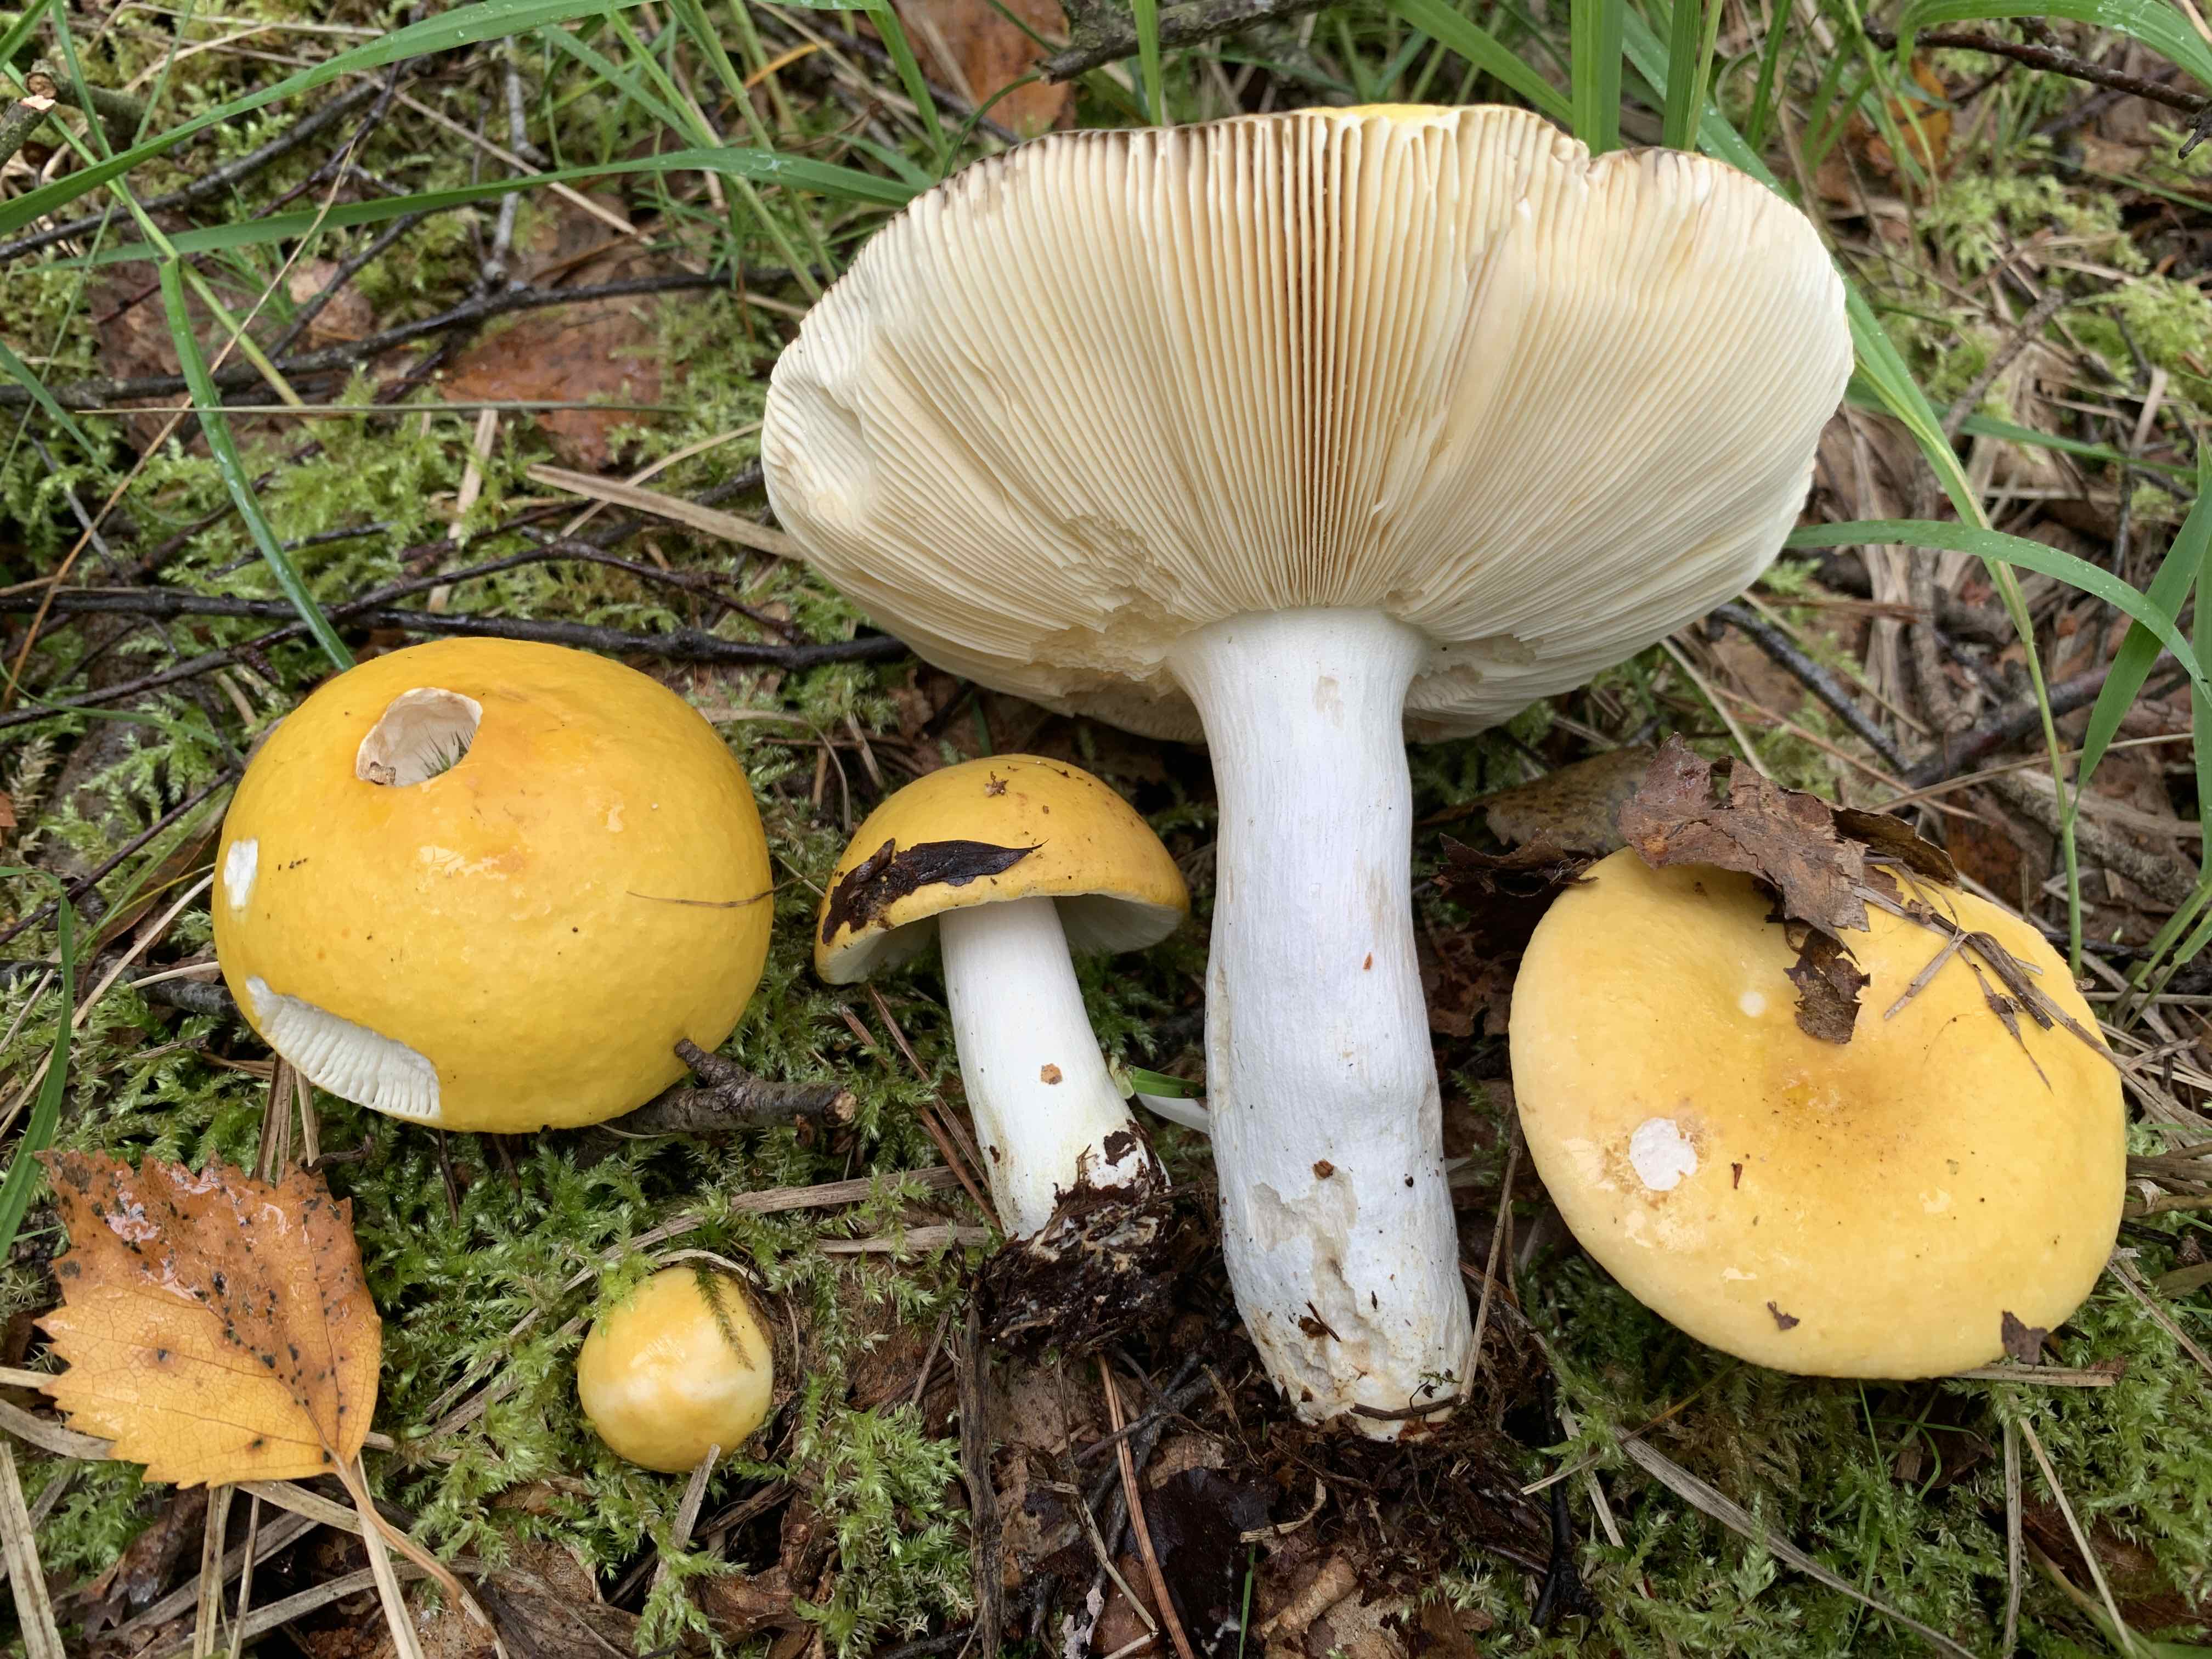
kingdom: Fungi
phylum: Basidiomycota
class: Agaricomycetes
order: Russulales
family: Russulaceae
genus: Russula
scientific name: Russula claroflava
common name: birke-skørhat
